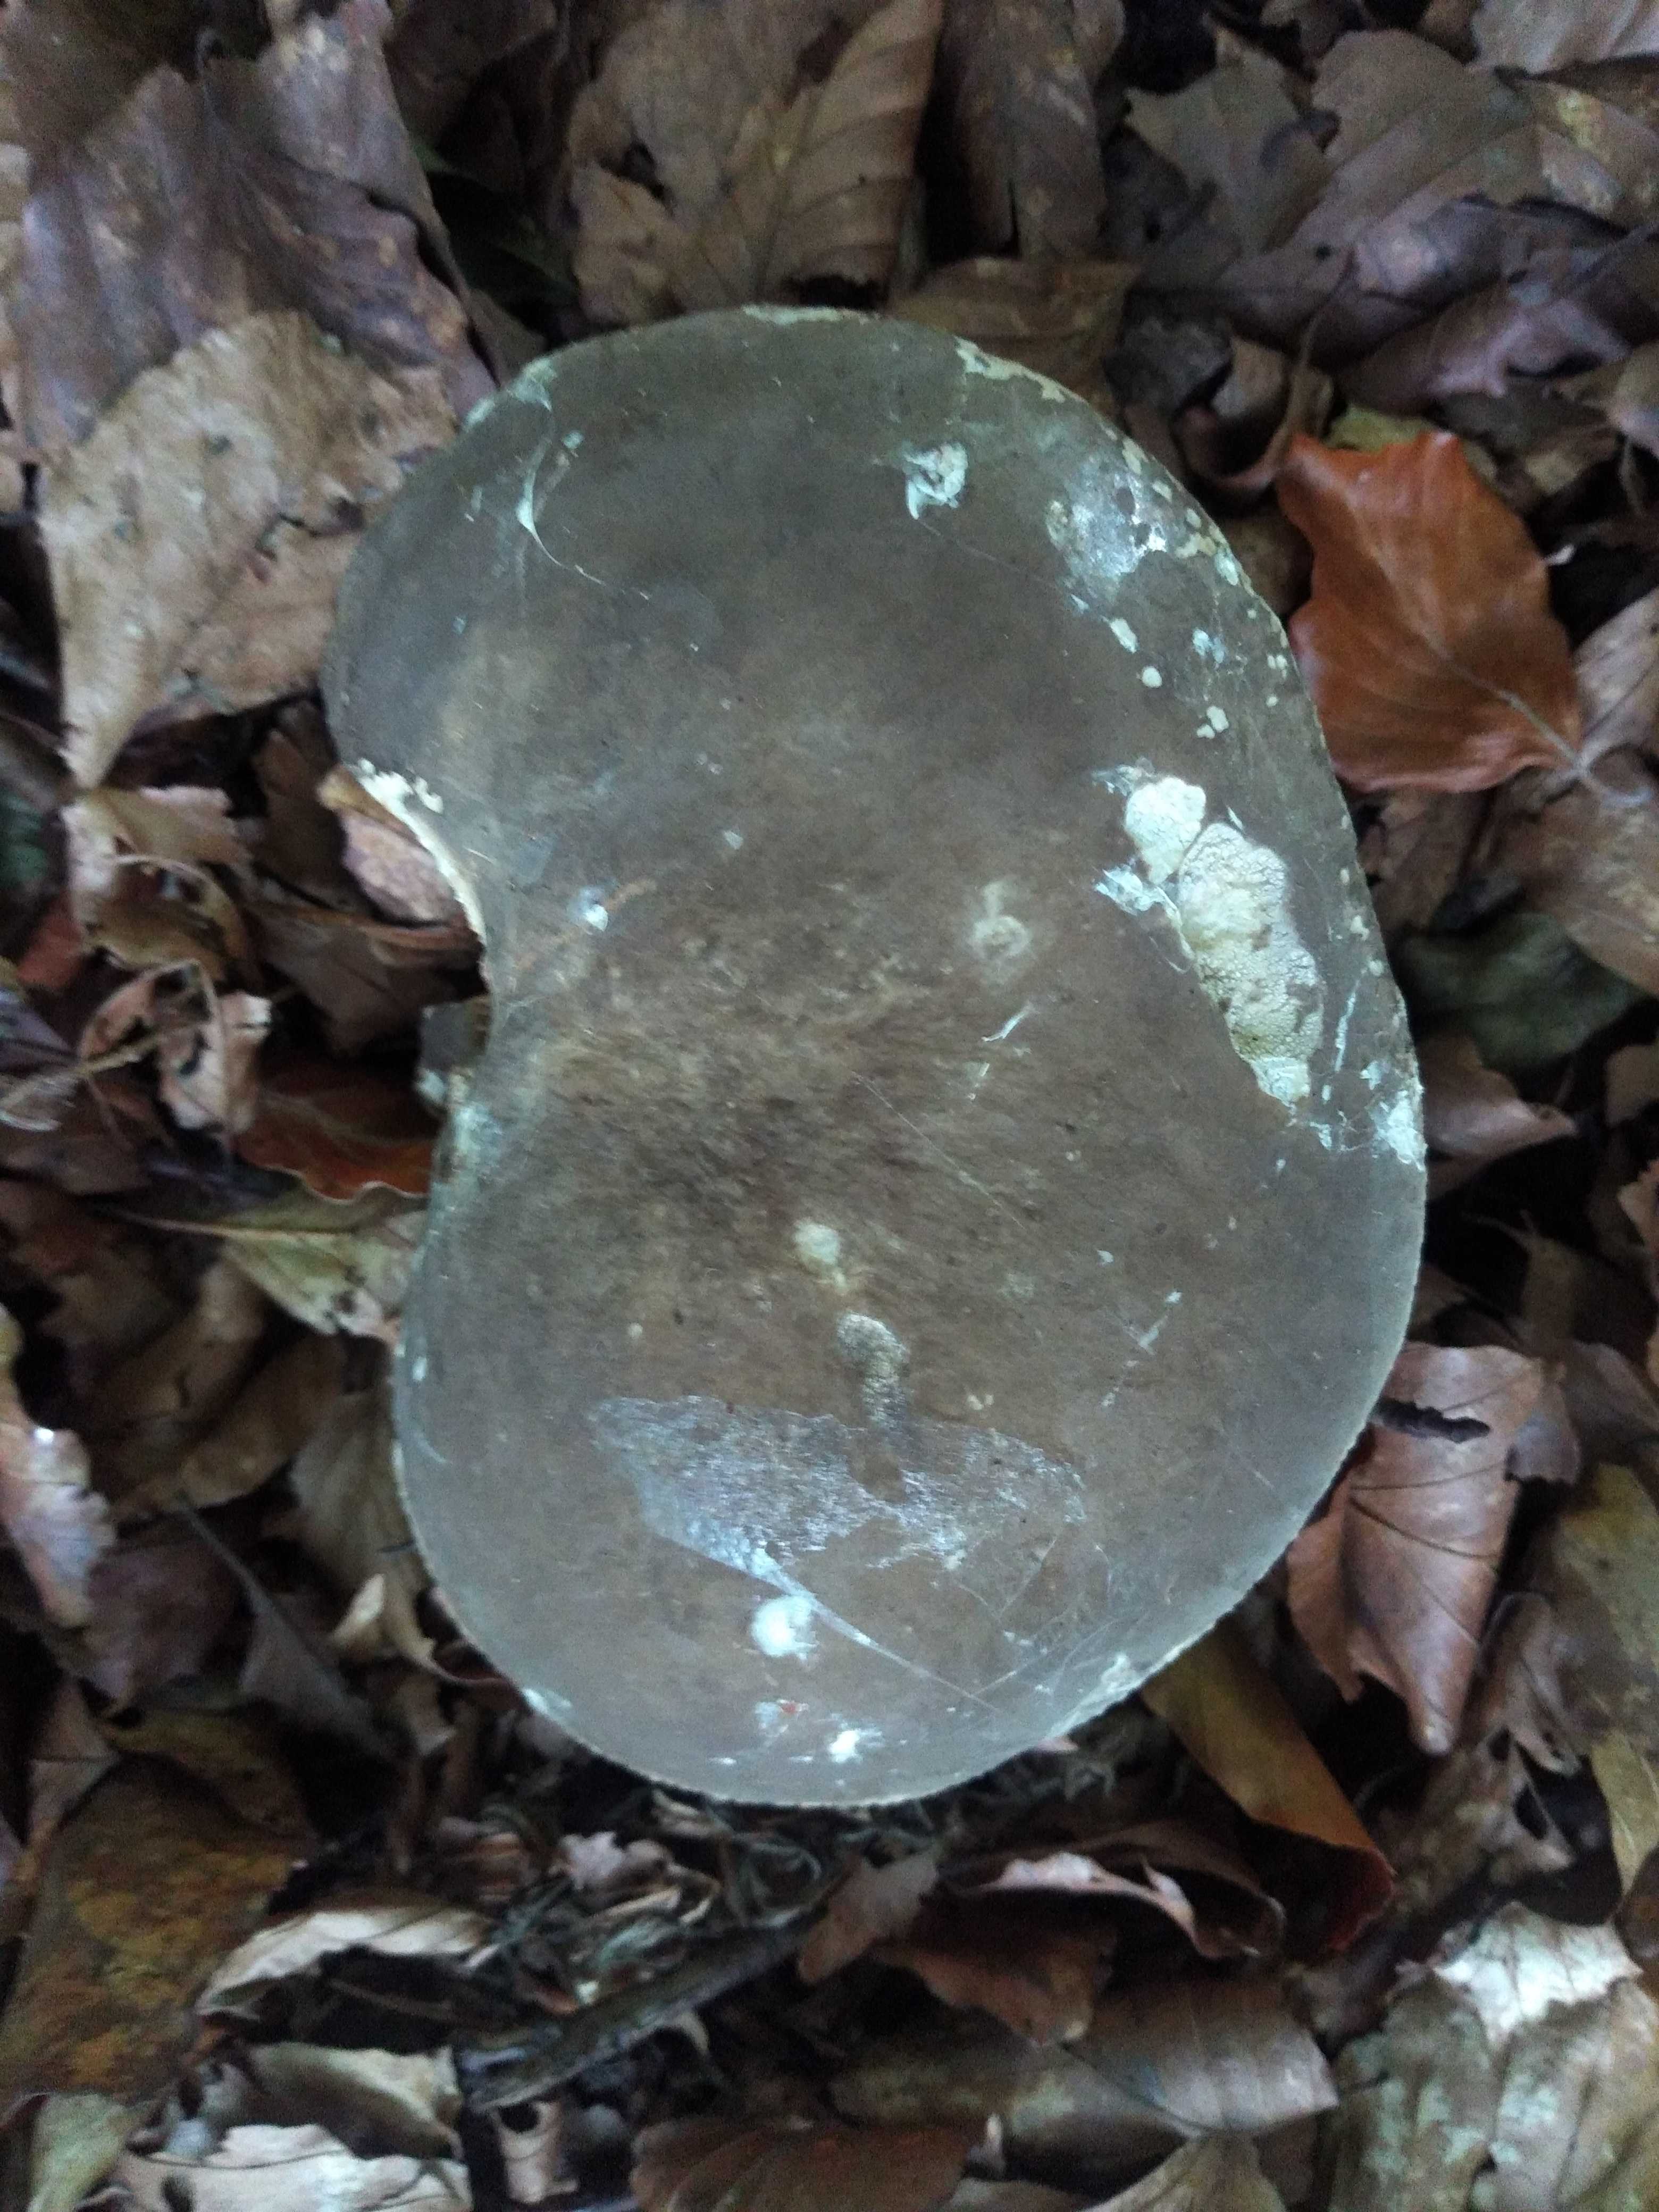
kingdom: Fungi
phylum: Basidiomycota
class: Agaricomycetes
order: Russulales
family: Russulaceae
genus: Lactarius
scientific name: Lactarius pterosporus
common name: vingesporet mælkehat
